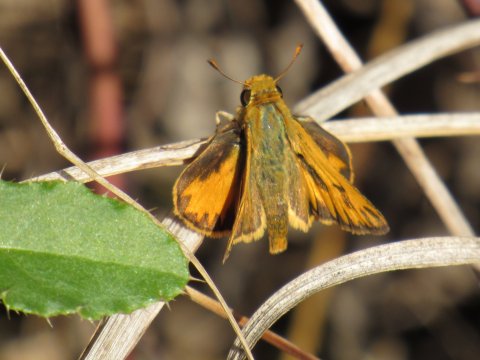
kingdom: Animalia
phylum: Arthropoda
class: Insecta
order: Lepidoptera
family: Hesperiidae
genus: Hylephila
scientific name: Hylephila phyleus
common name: Fiery Skipper
